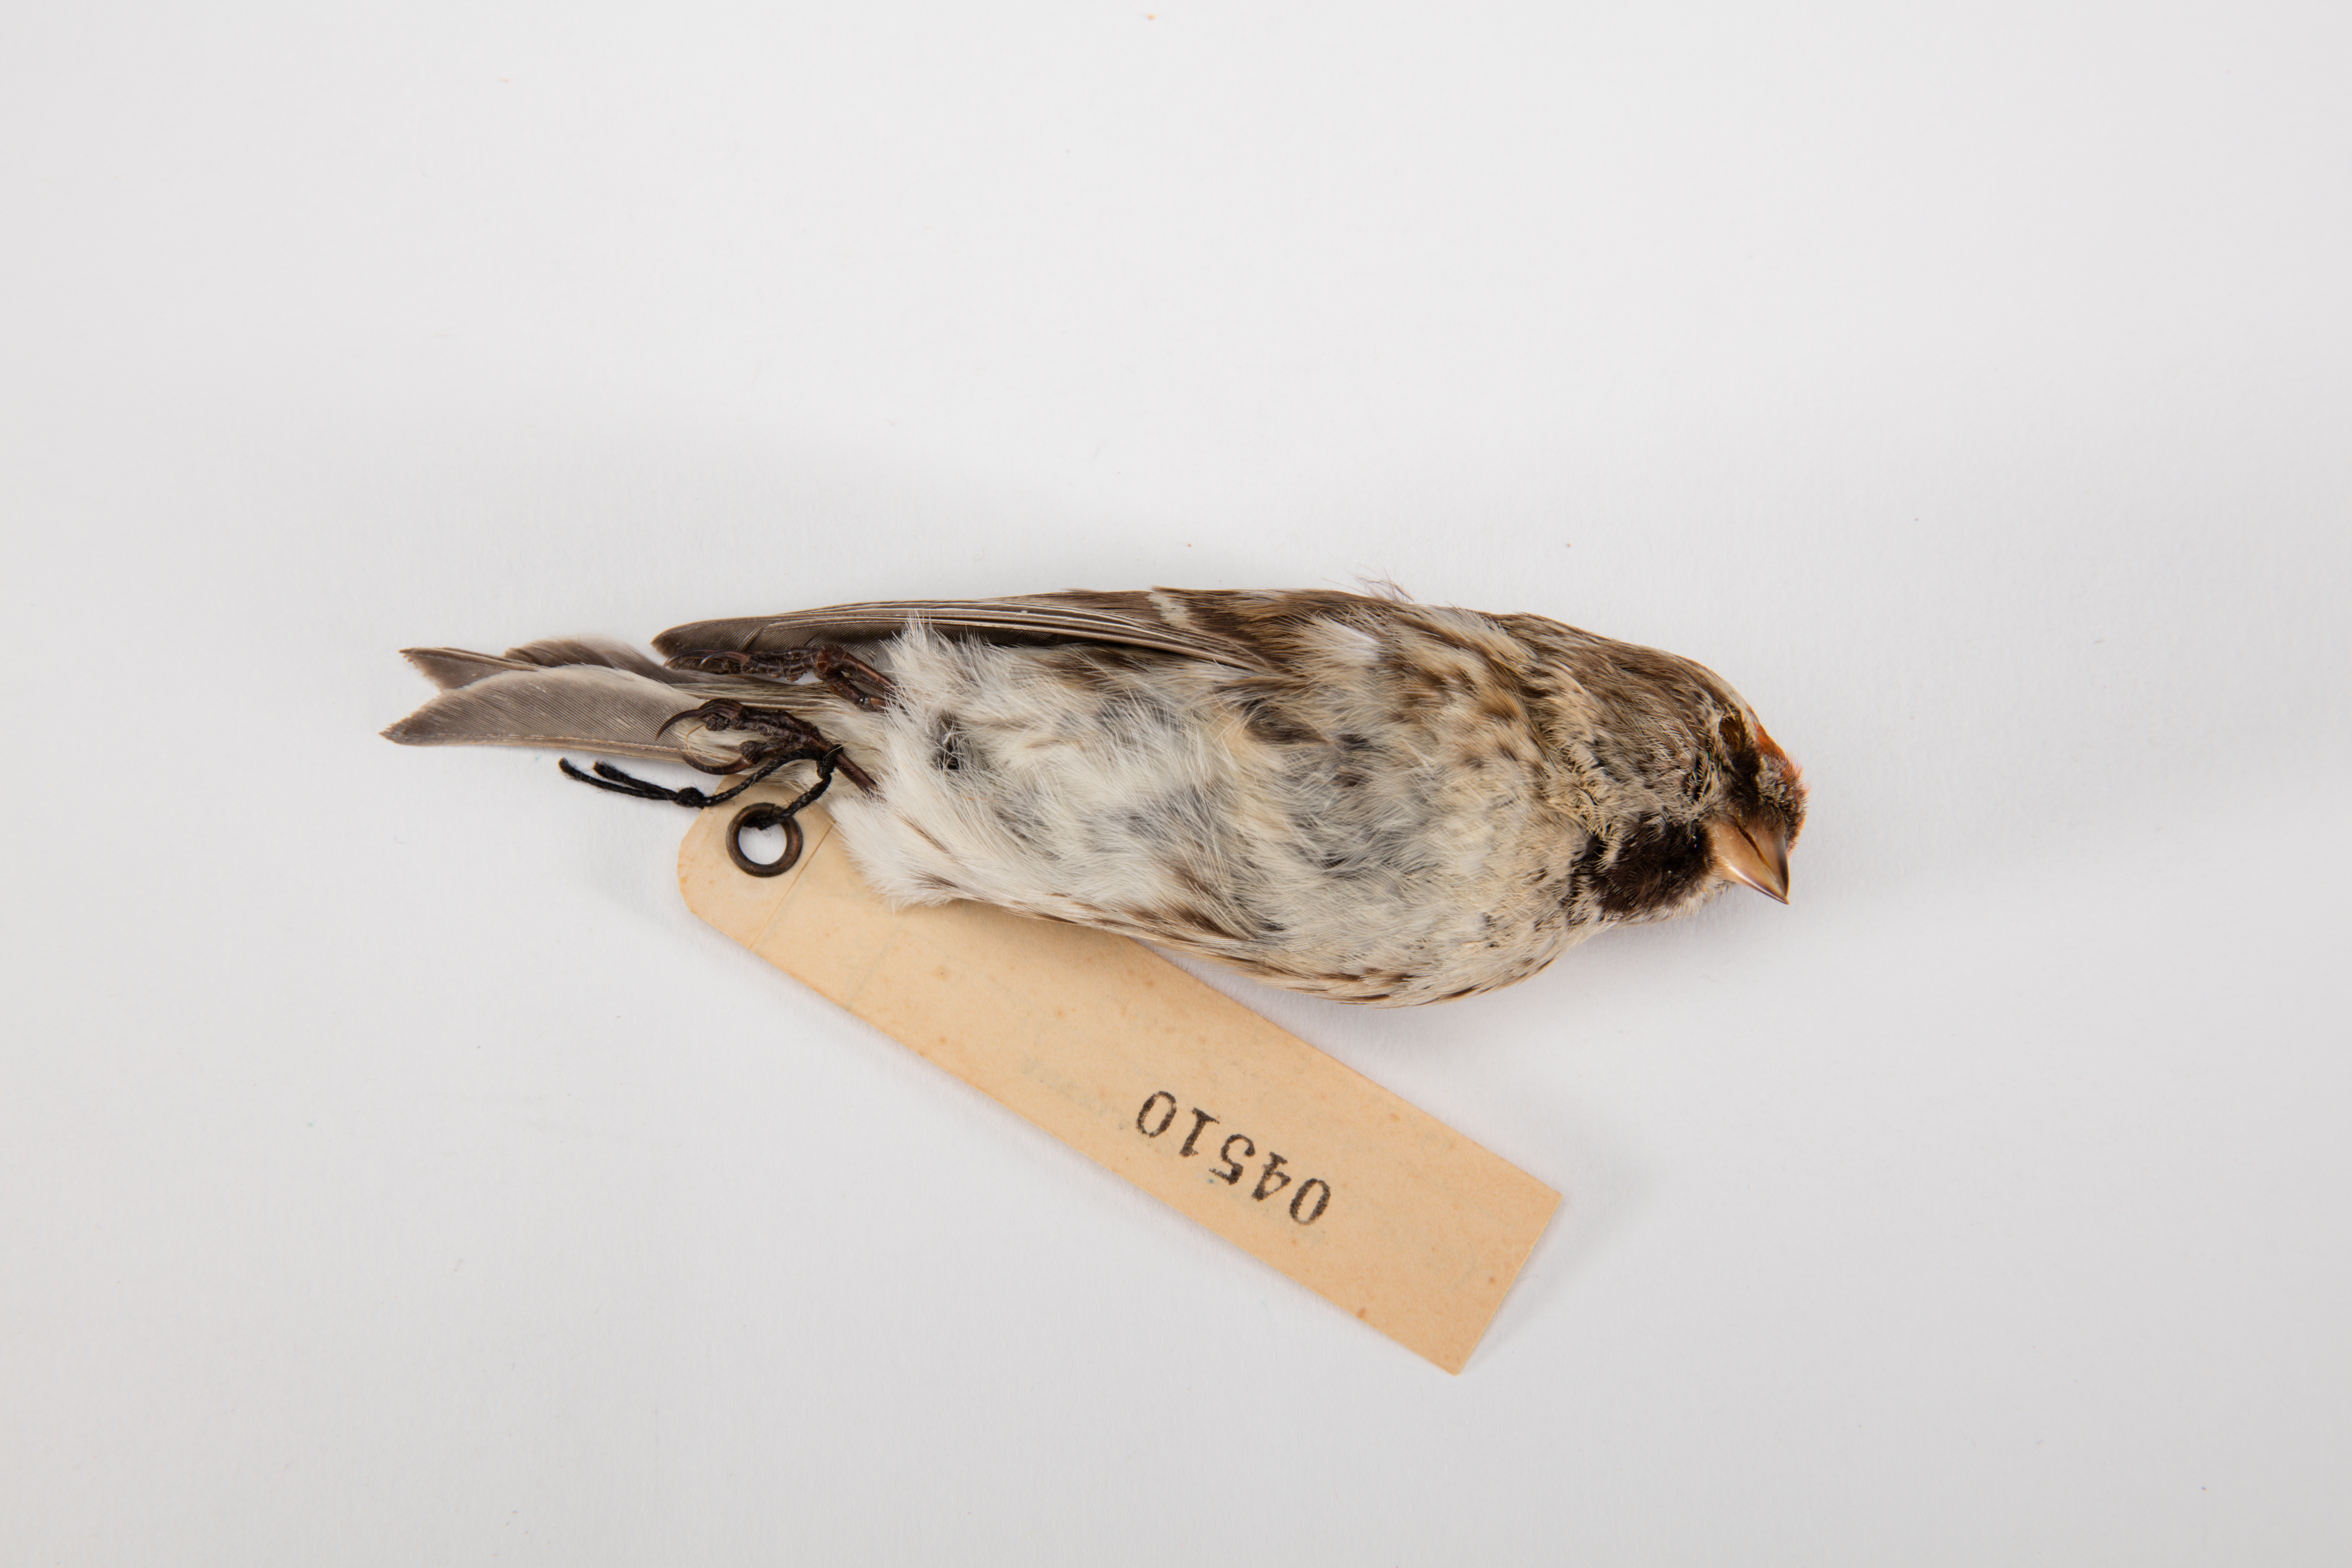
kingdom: Animalia
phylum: Chordata
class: Aves
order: Passeriformes
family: Fringillidae
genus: Acanthis
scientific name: Acanthis flammea
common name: Common redpoll
